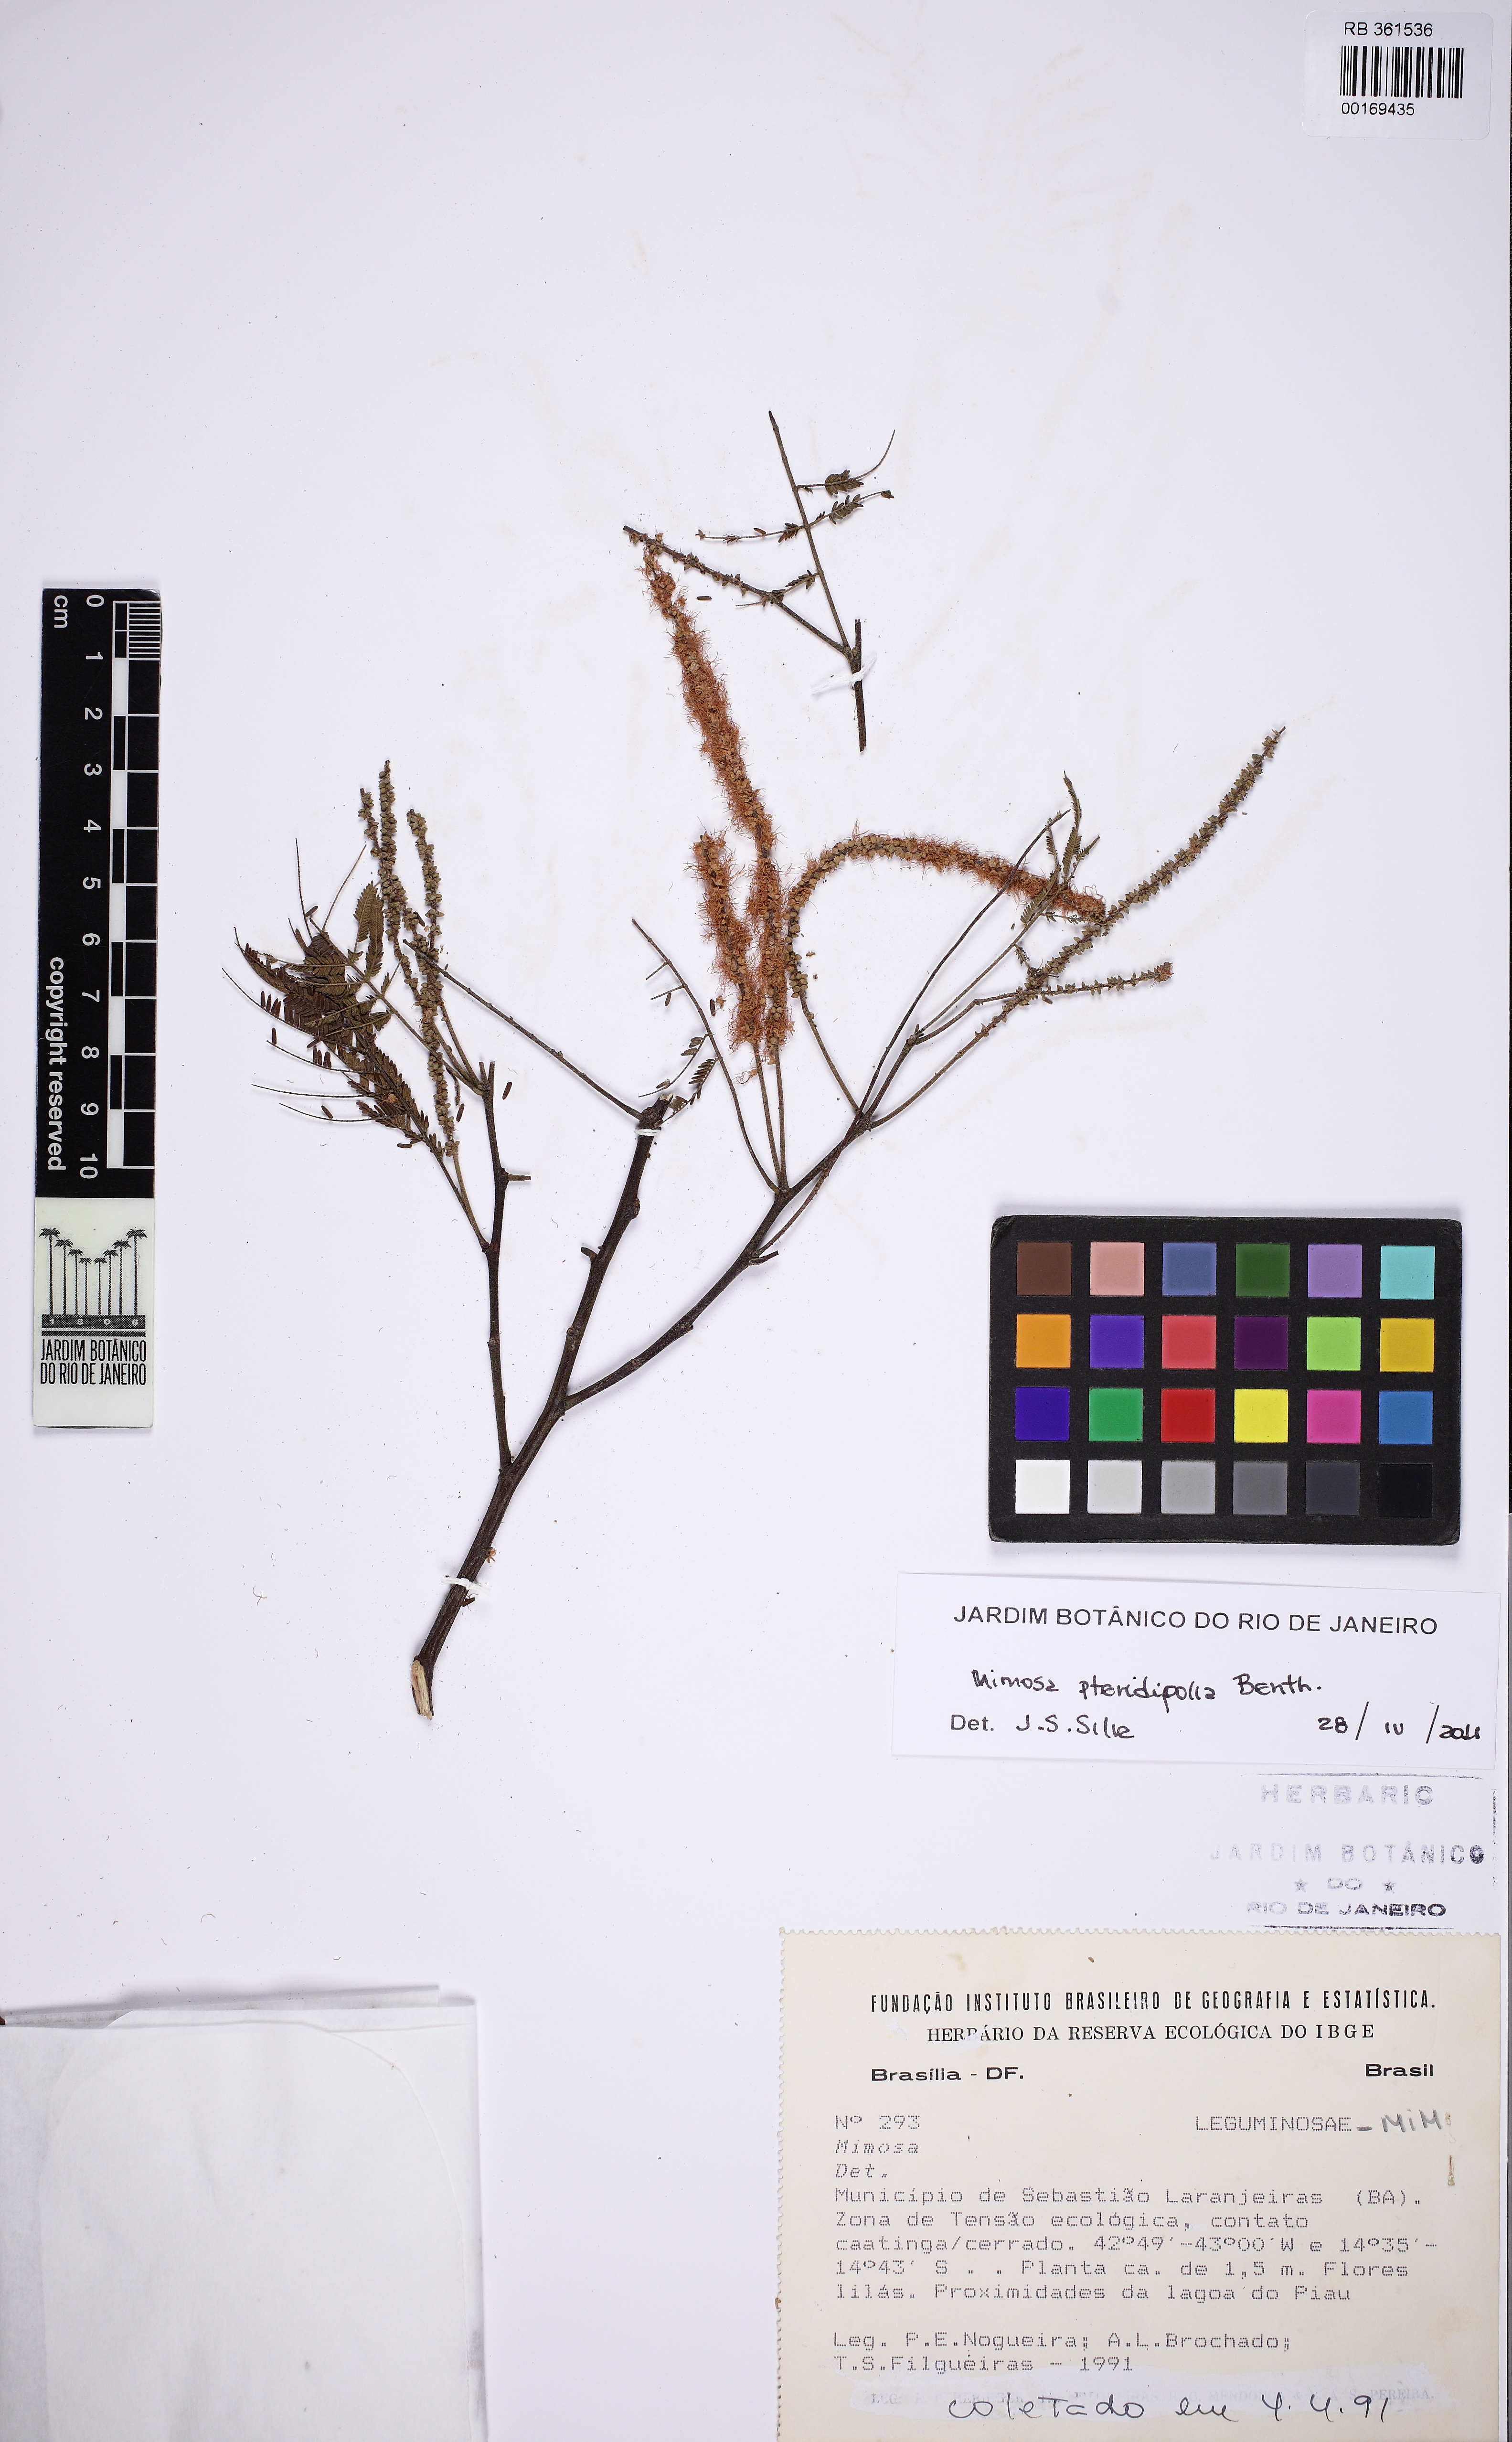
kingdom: Plantae
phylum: Tracheophyta
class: Magnoliopsida
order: Fabales
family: Fabaceae
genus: Mimosa
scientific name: Mimosa pteridifolia
